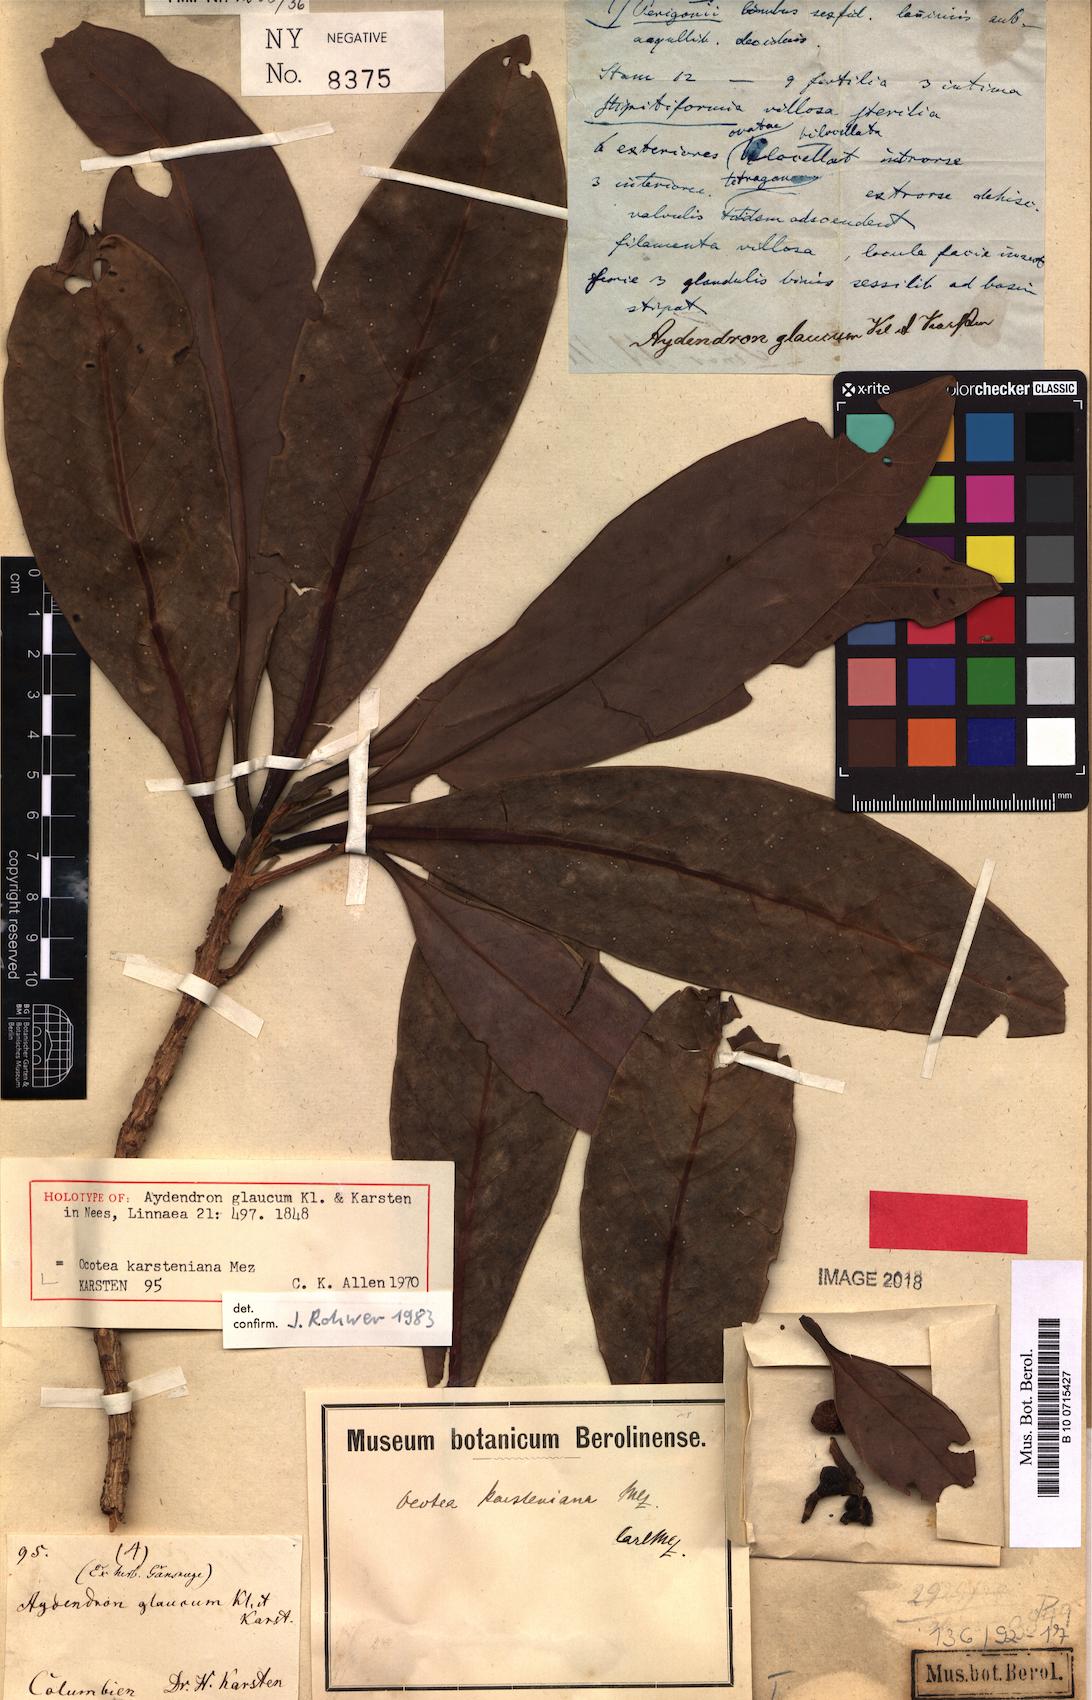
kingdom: Plantae
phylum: Tracheophyta
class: Magnoliopsida
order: Laurales
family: Lauraceae
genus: Ocotea
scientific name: Ocotea karsteniana
